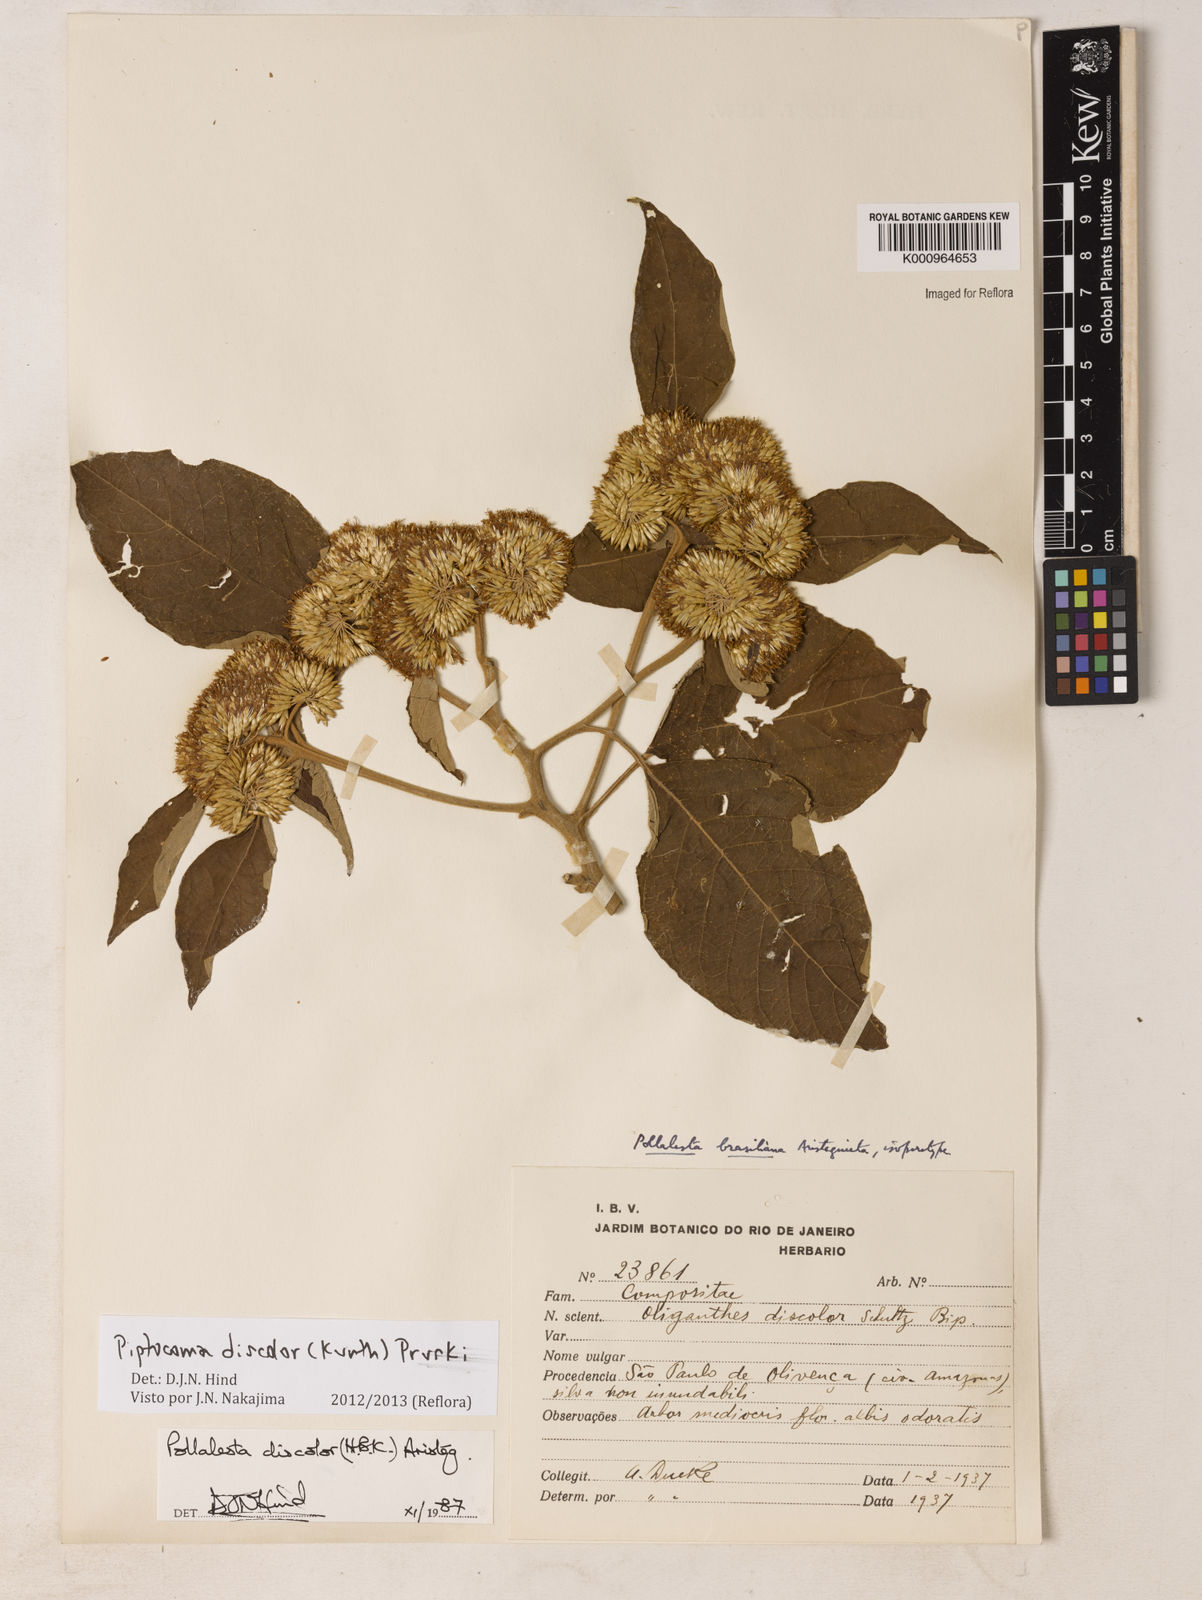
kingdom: Plantae
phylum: Tracheophyta
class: Magnoliopsida
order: Asterales
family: Asteraceae
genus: Piptocoma
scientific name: Piptocoma discolor
